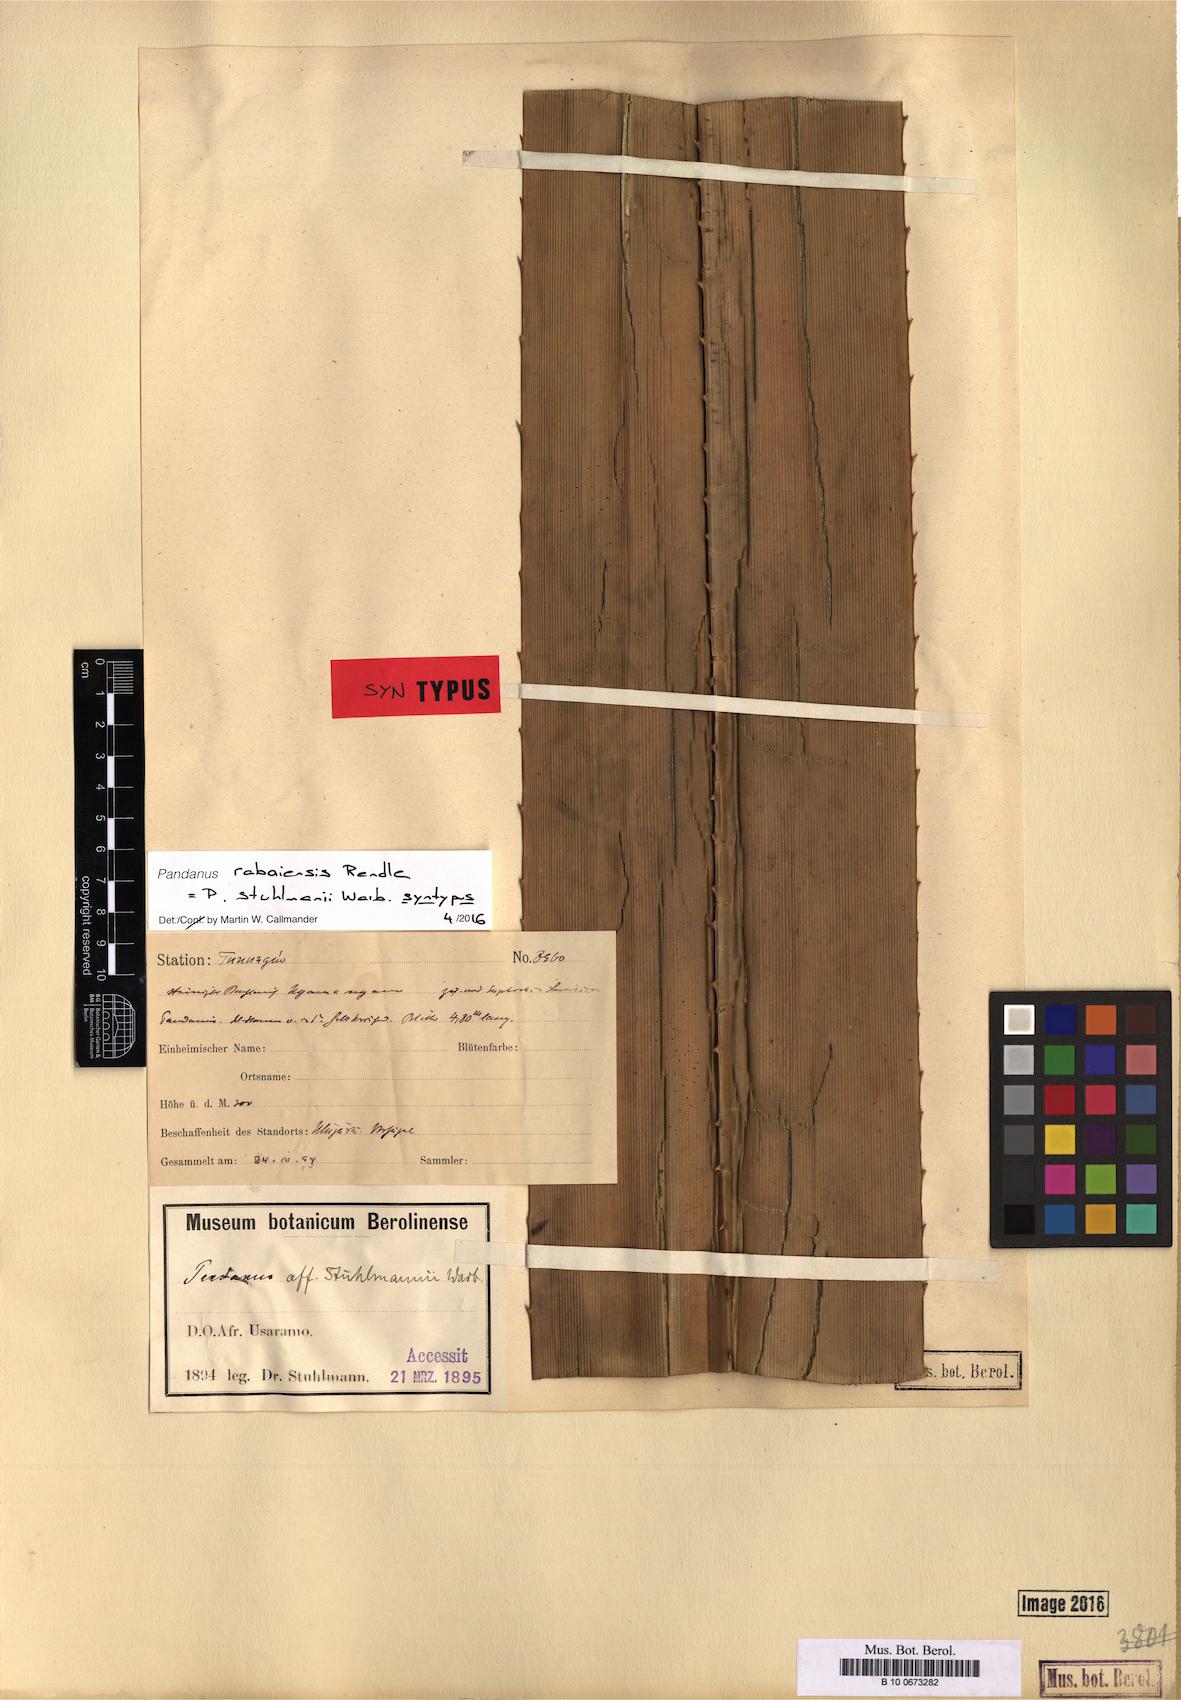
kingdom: Plantae
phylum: Tracheophyta
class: Liliopsida
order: Pandanales
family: Pandanaceae
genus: Pandanus
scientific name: Pandanus rabaiensis
